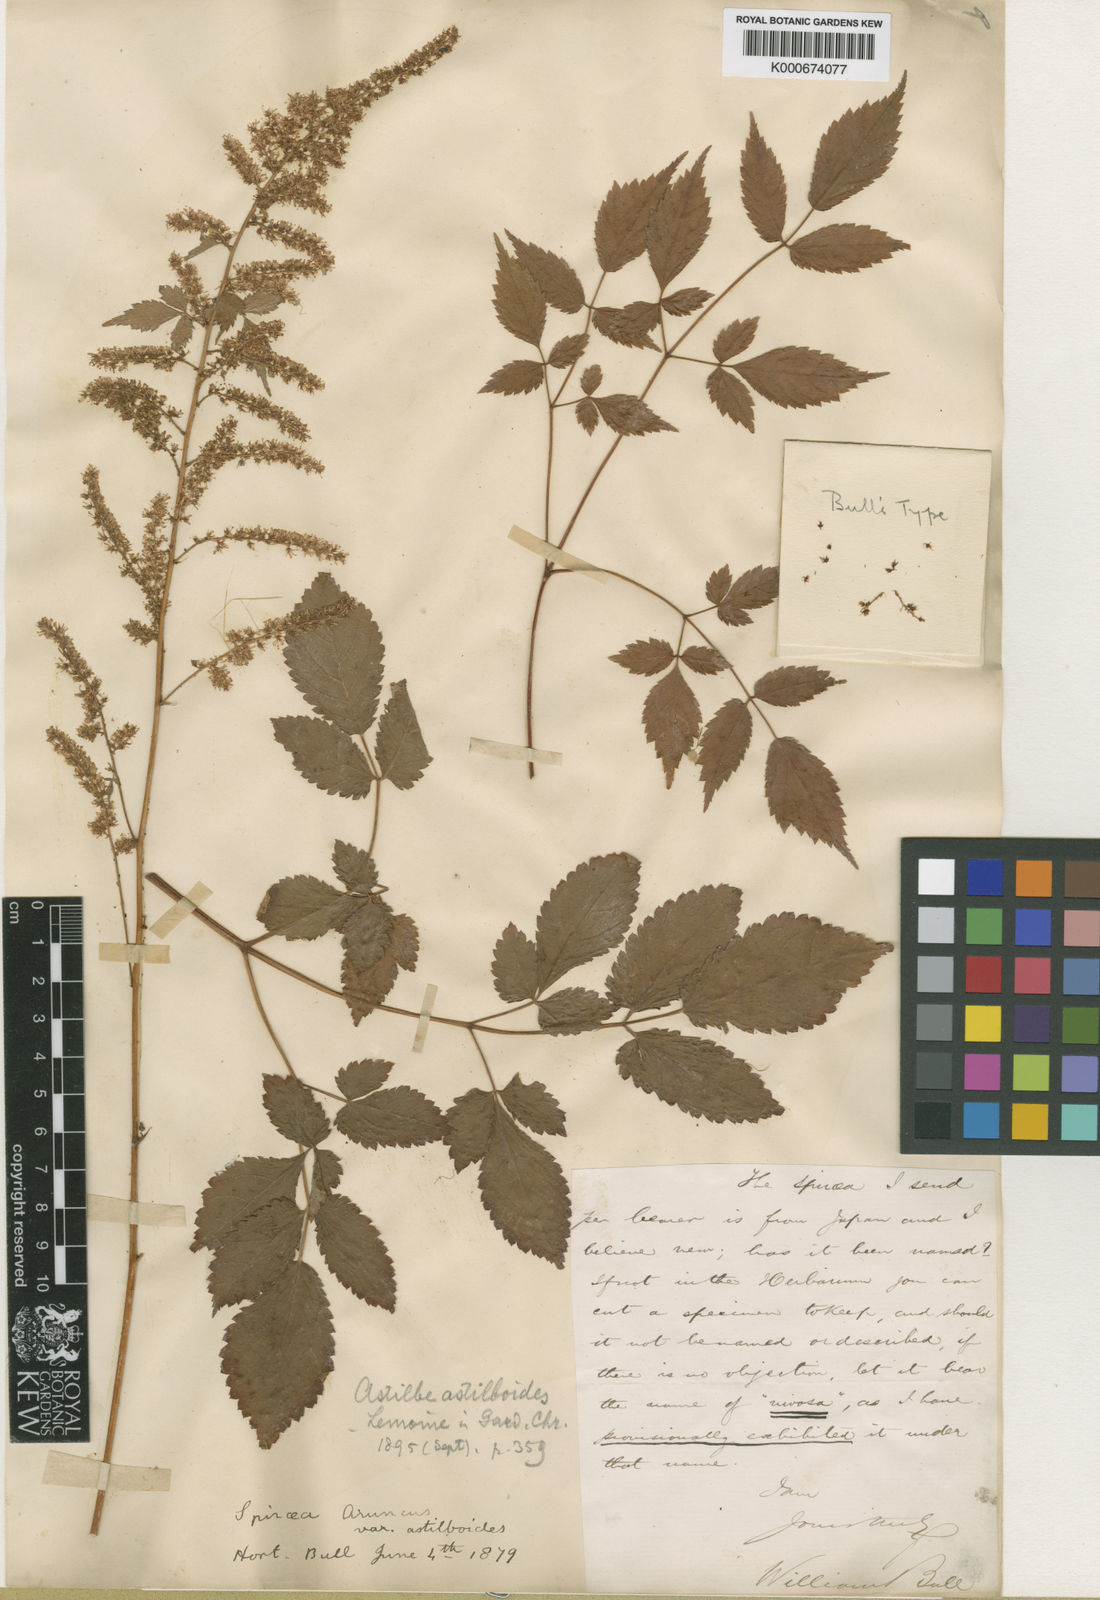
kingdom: Plantae
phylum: Tracheophyta
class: Magnoliopsida
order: Saxifragales
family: Saxifragaceae
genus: Astilbe
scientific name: Astilbe
